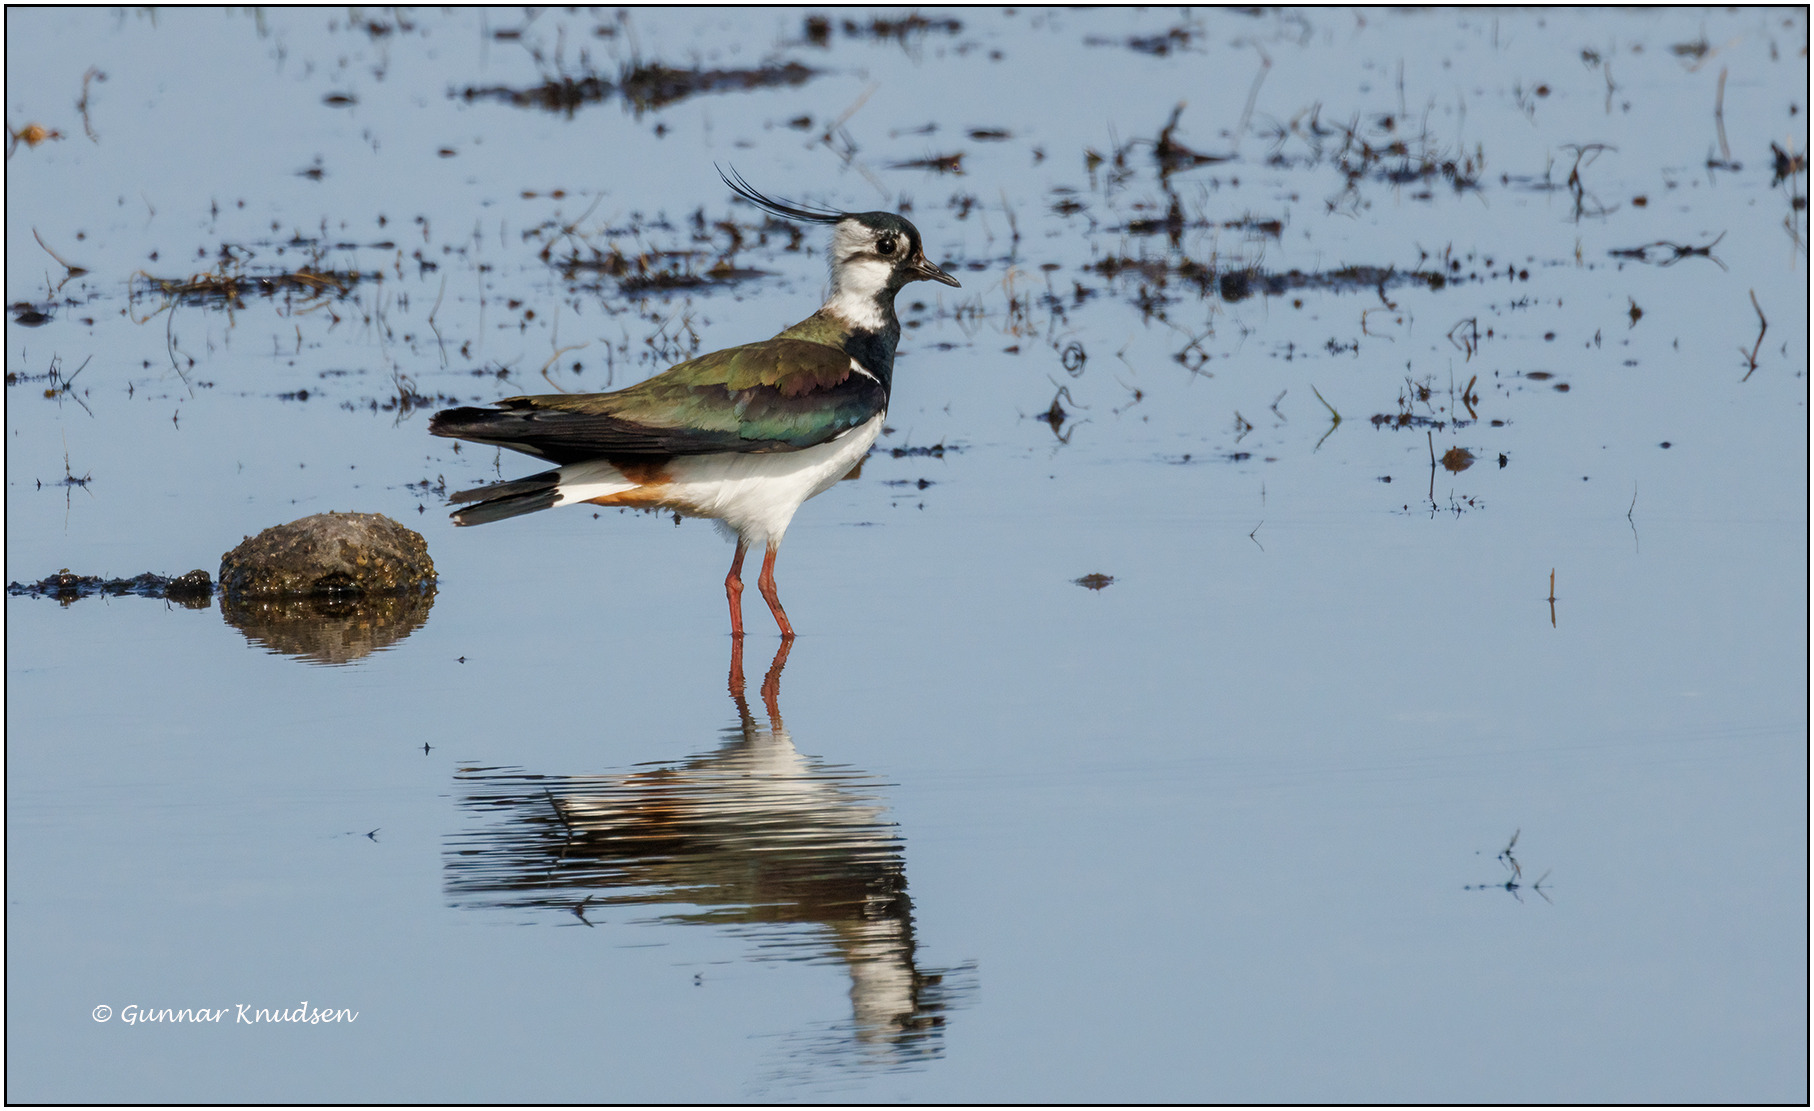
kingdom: Animalia
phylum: Chordata
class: Aves
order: Charadriiformes
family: Charadriidae
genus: Vanellus
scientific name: Vanellus vanellus
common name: Vibe
